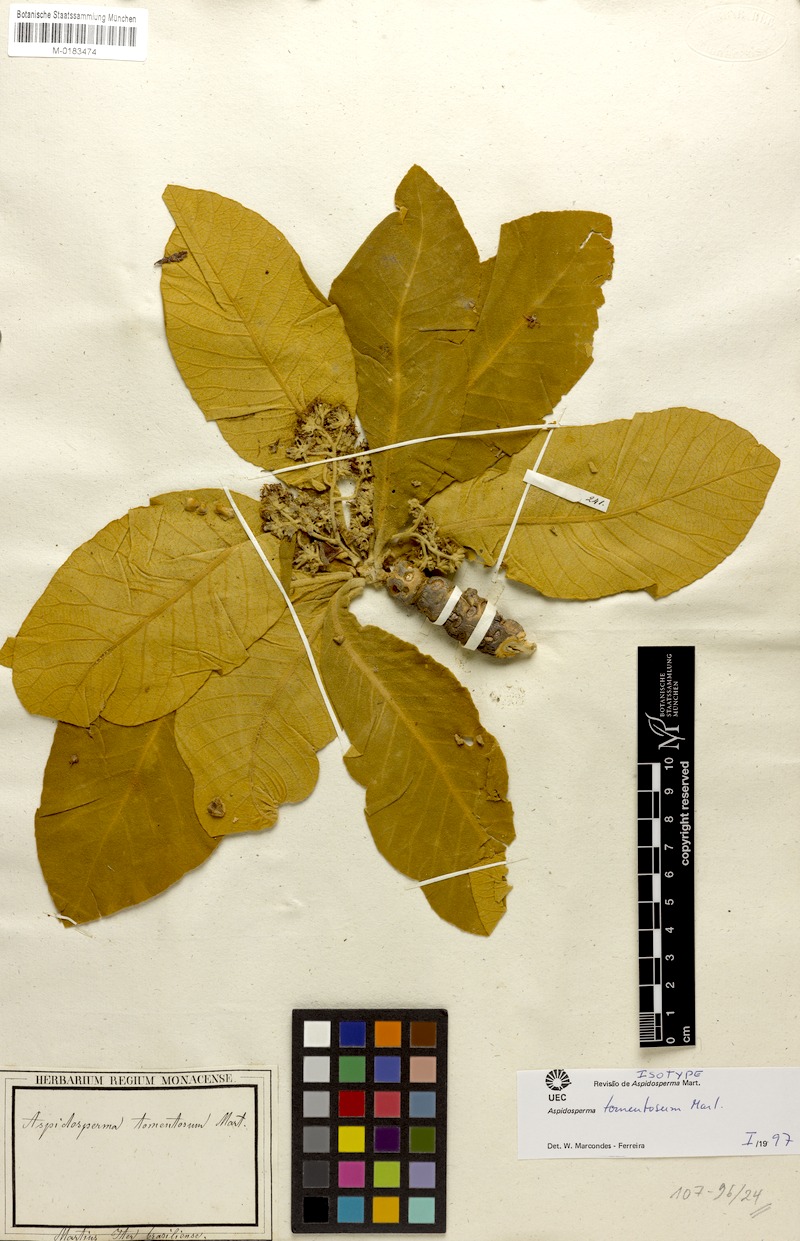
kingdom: Plantae
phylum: Tracheophyta
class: Magnoliopsida
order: Gentianales
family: Apocynaceae
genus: Aspidosperma
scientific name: Aspidosperma tomentosum
